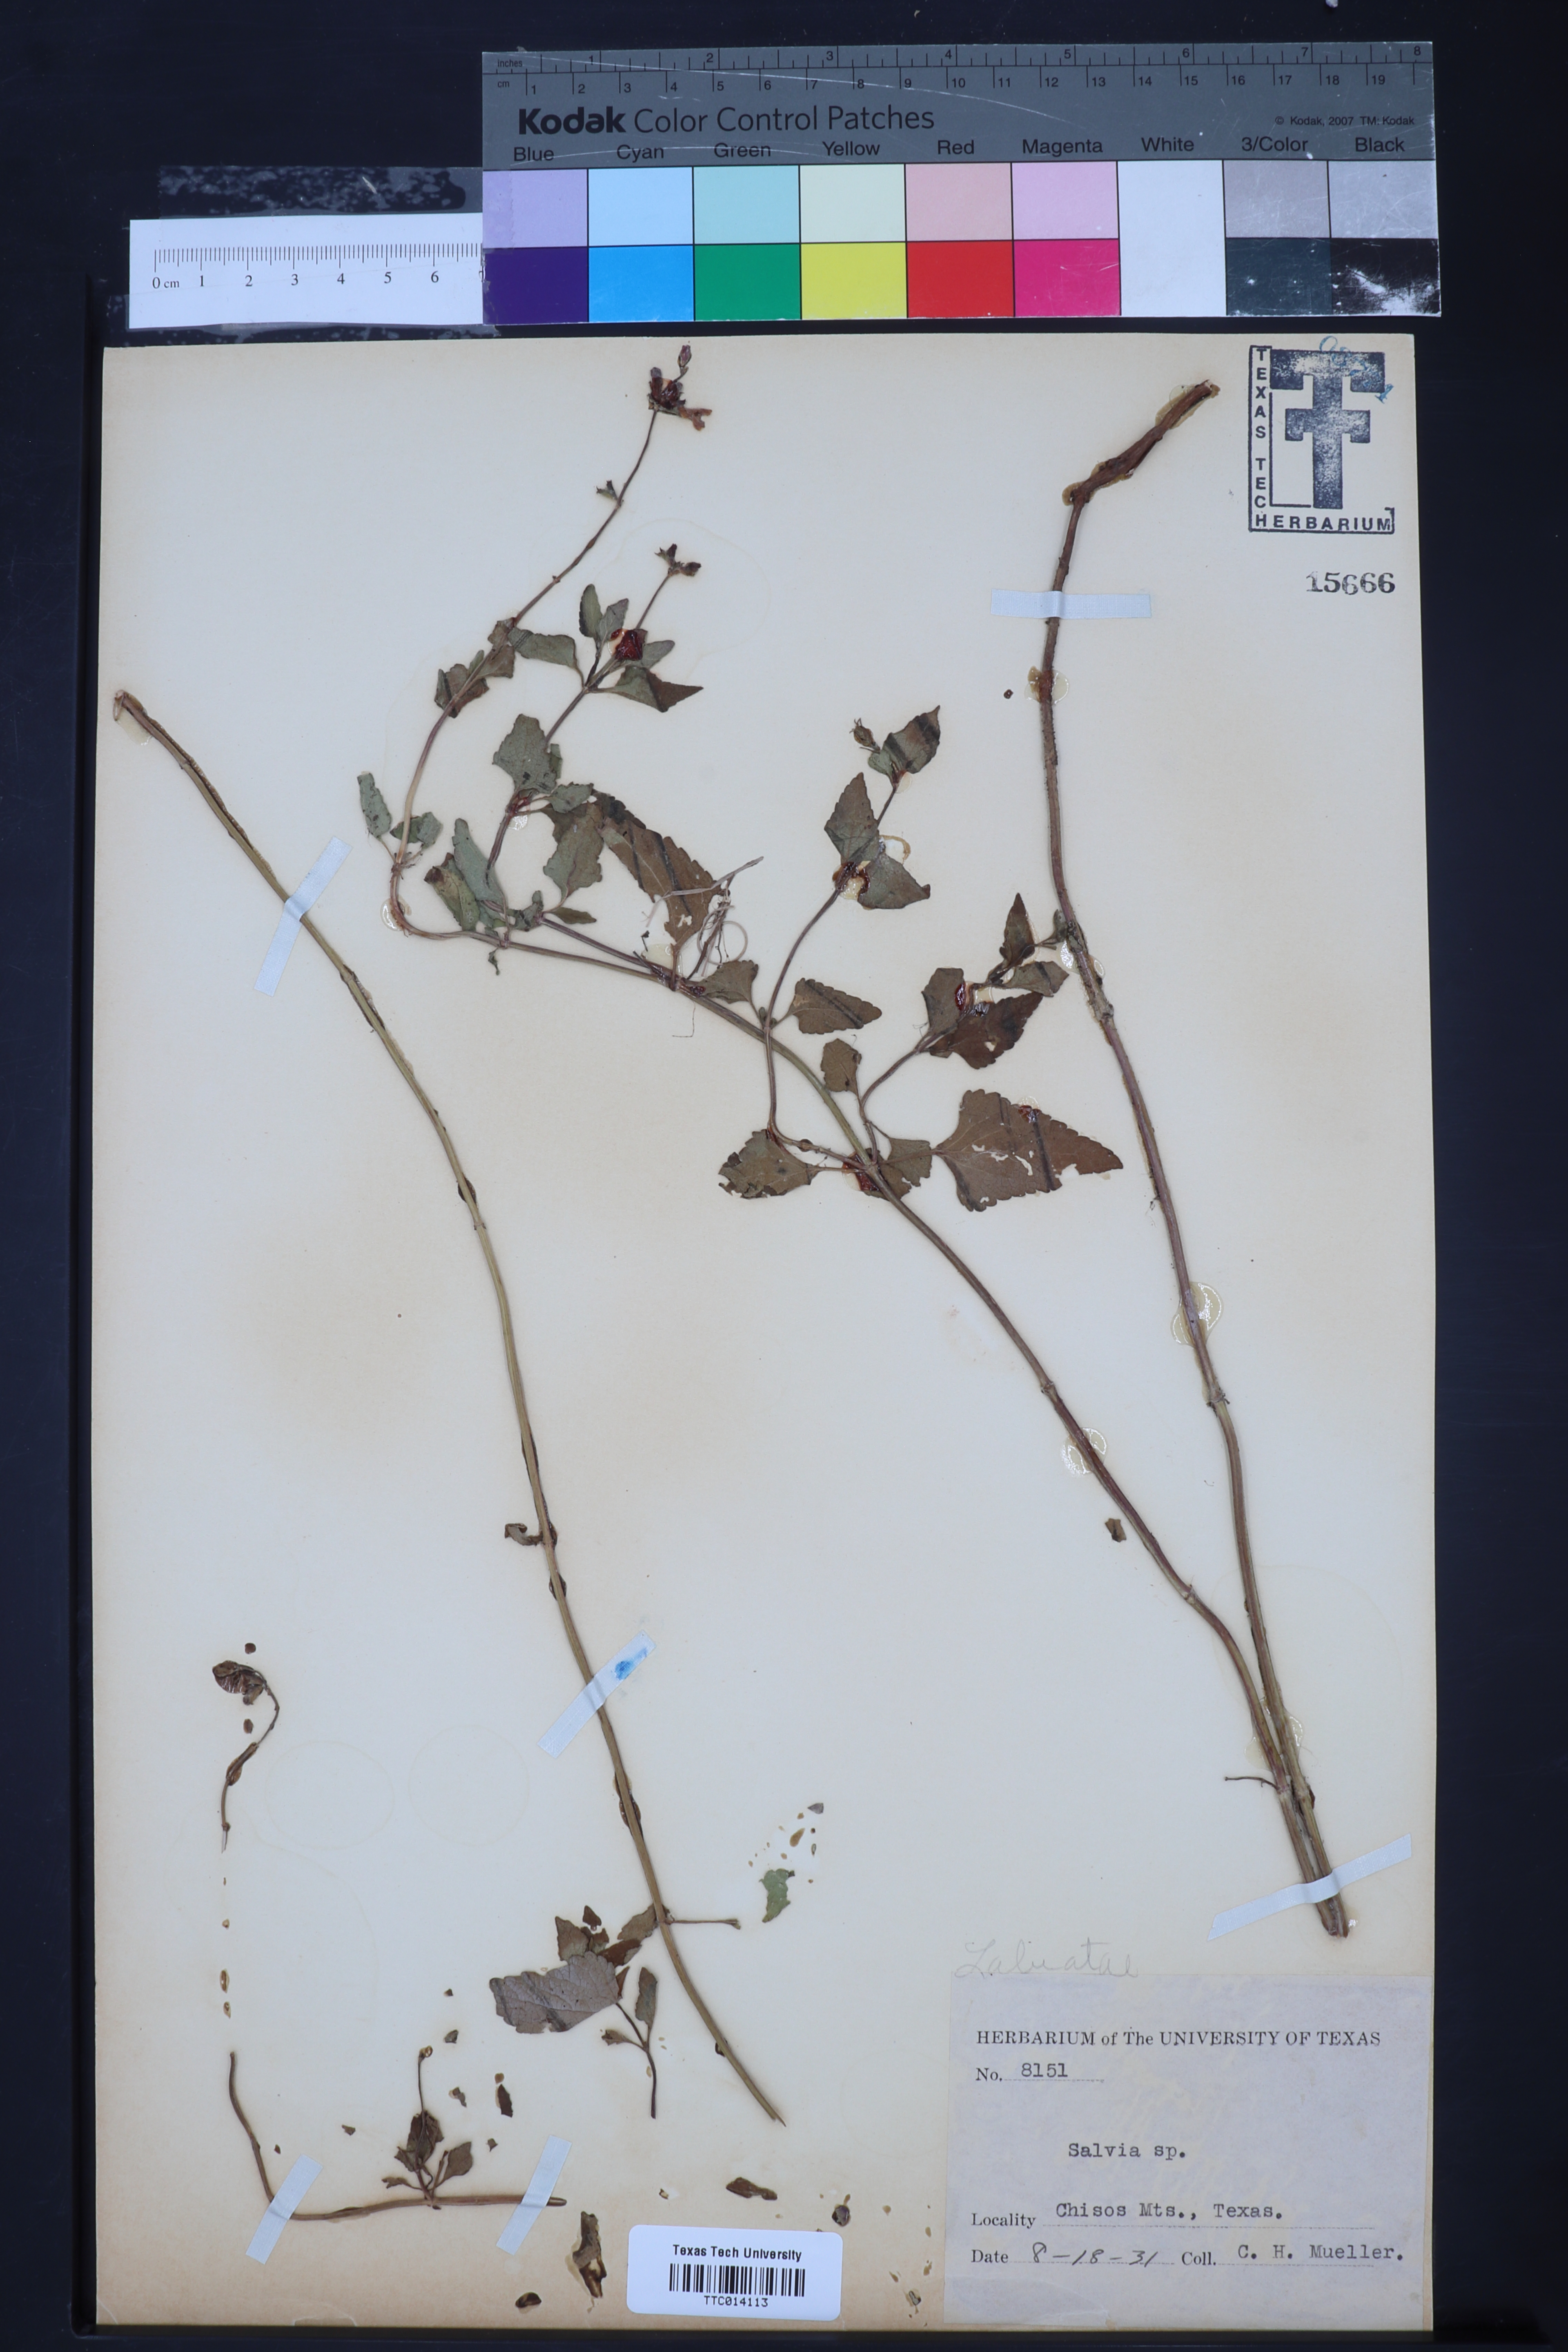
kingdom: Plantae
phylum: Tracheophyta
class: Magnoliopsida
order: Lamiales
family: Lamiaceae
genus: Salvia
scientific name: Salvia azurea
